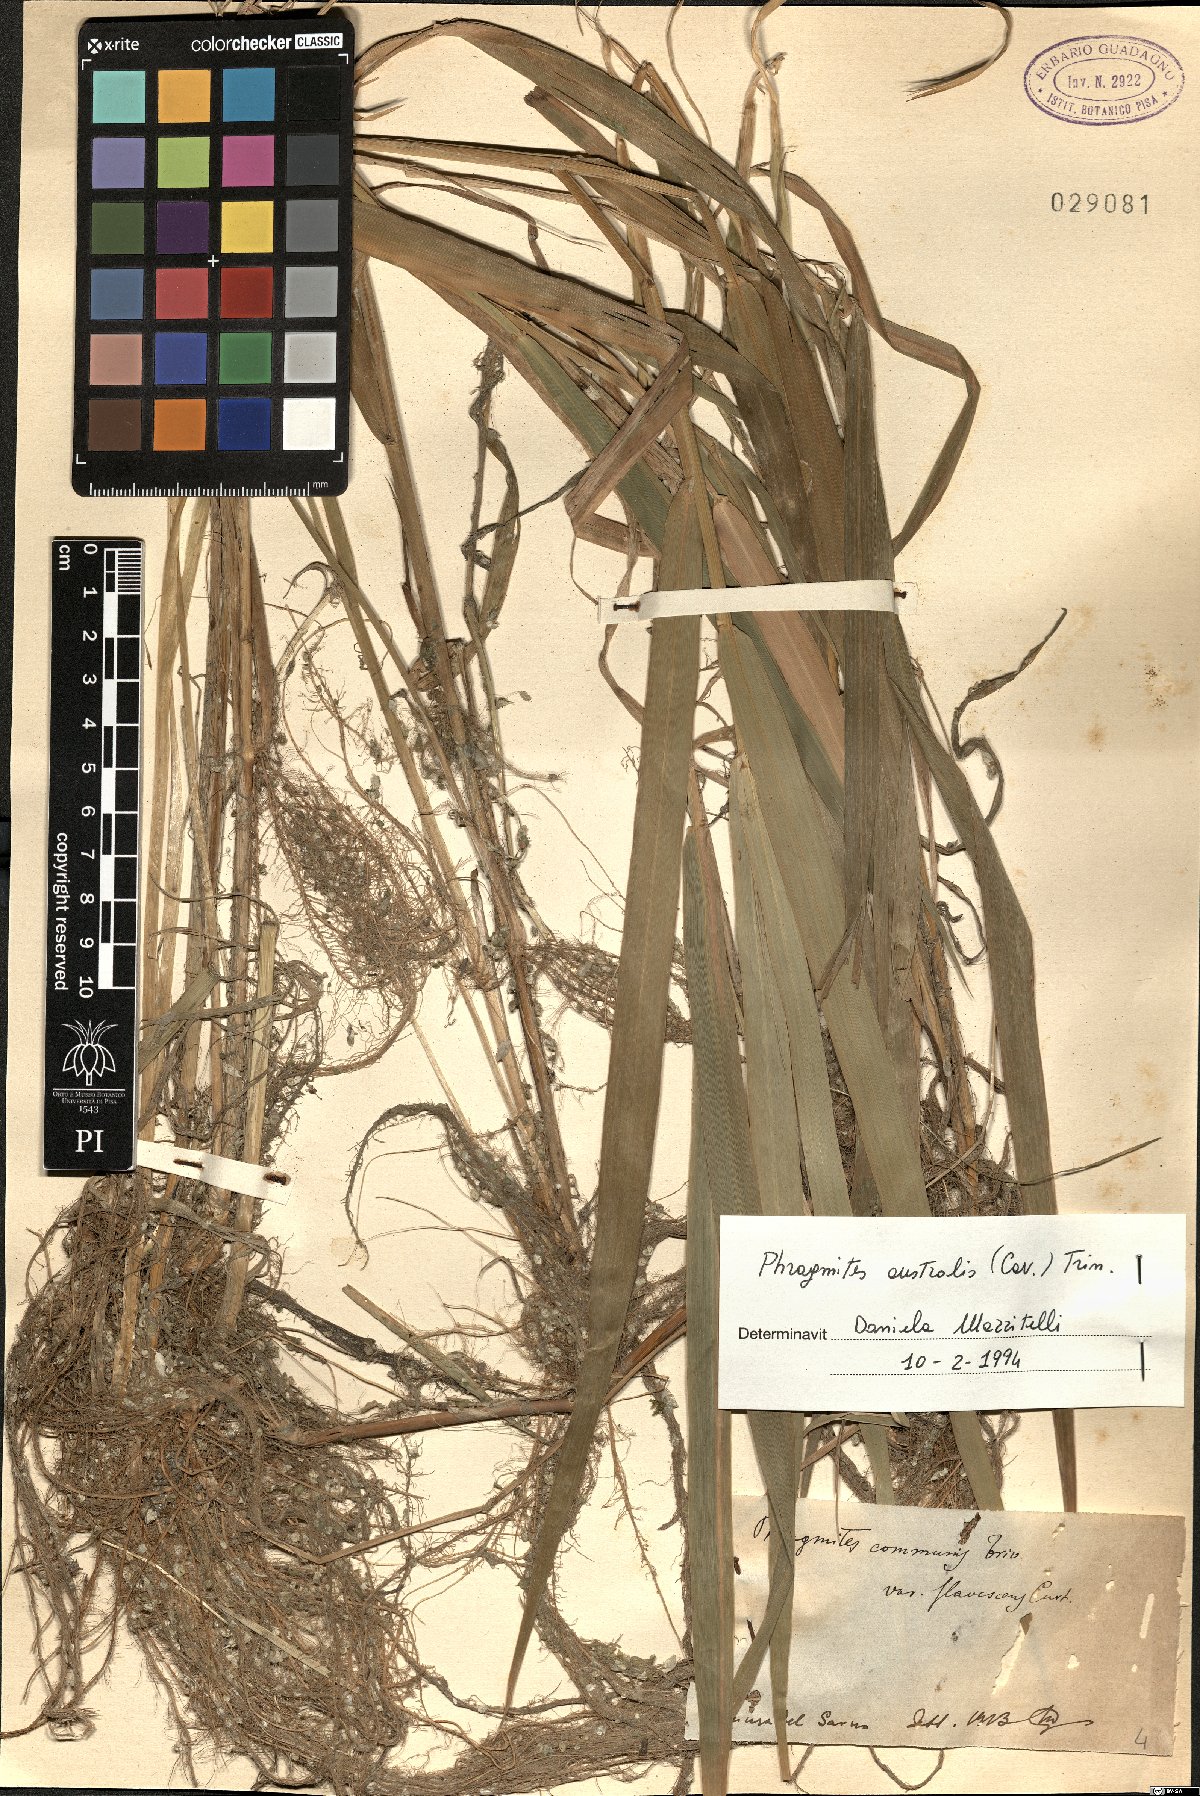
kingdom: Plantae
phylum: Tracheophyta
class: Liliopsida
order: Poales
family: Poaceae
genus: Phragmites
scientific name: Phragmites australis
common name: Common reed
